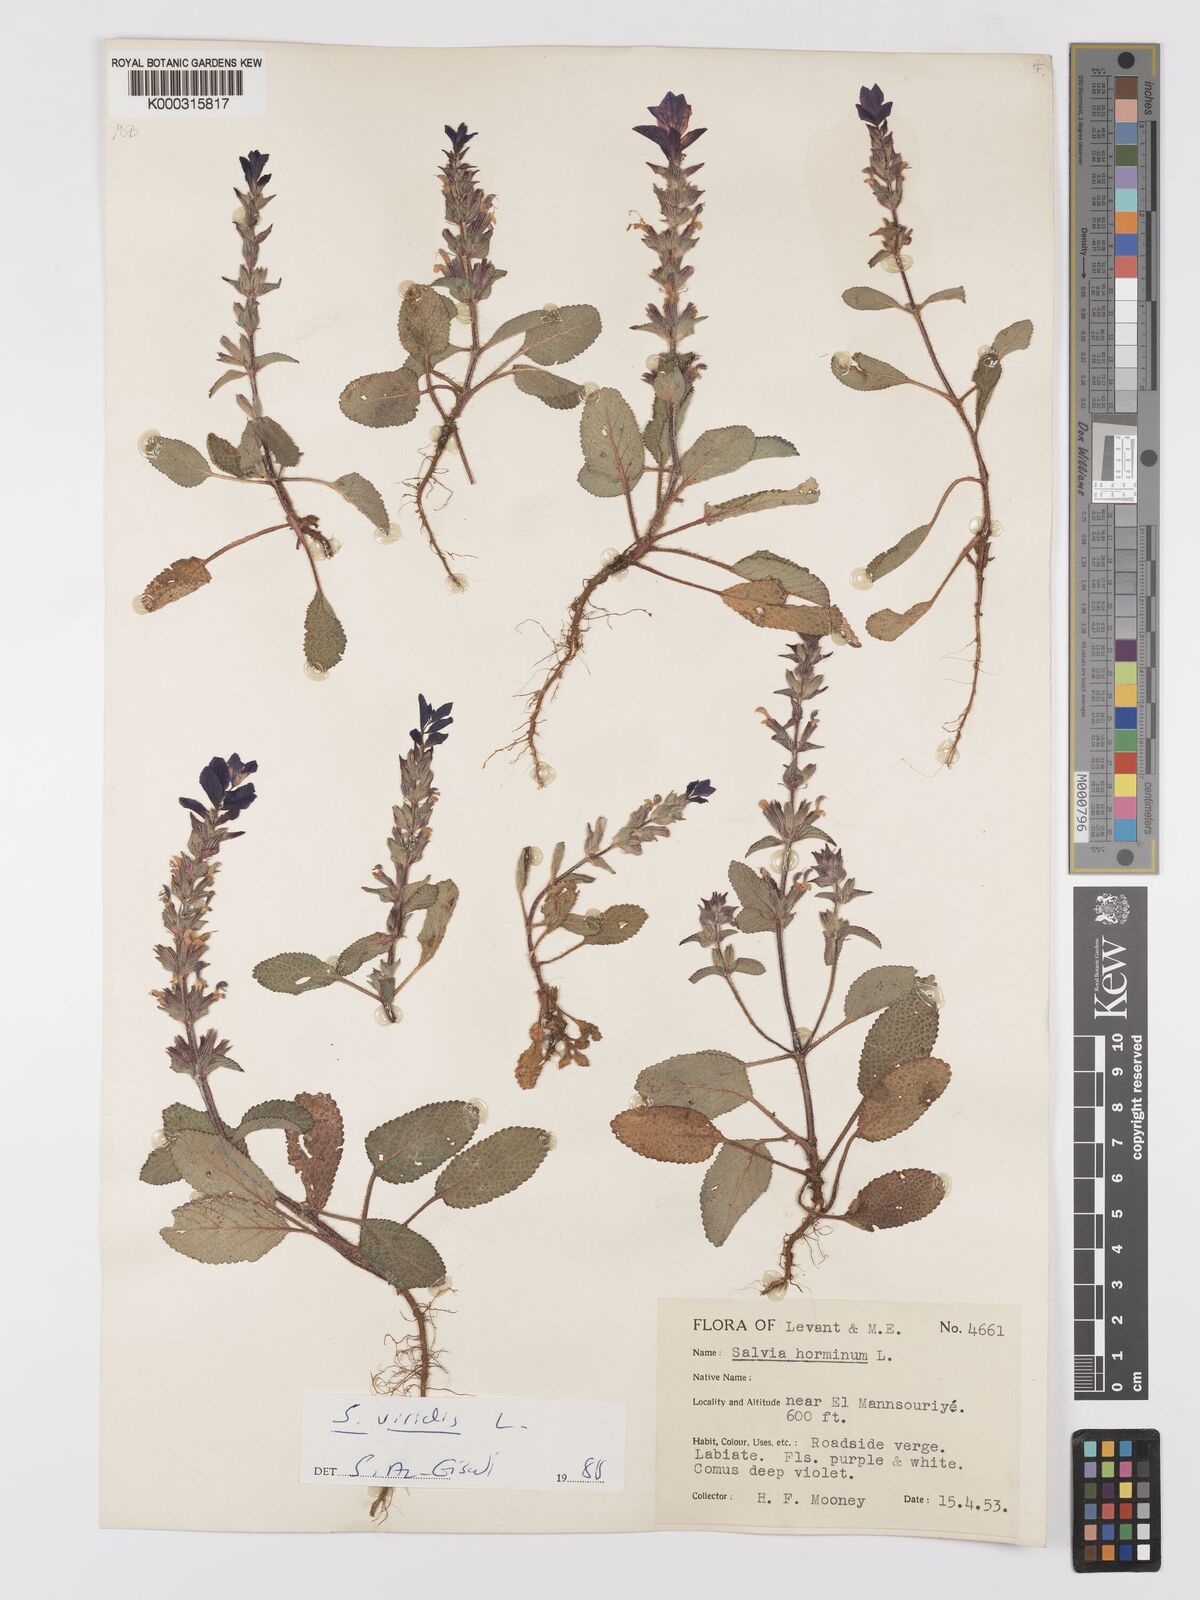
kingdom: Plantae
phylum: Tracheophyta
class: Magnoliopsida
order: Lamiales
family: Lamiaceae
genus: Salvia
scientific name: Salvia viridis
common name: Annual clary
